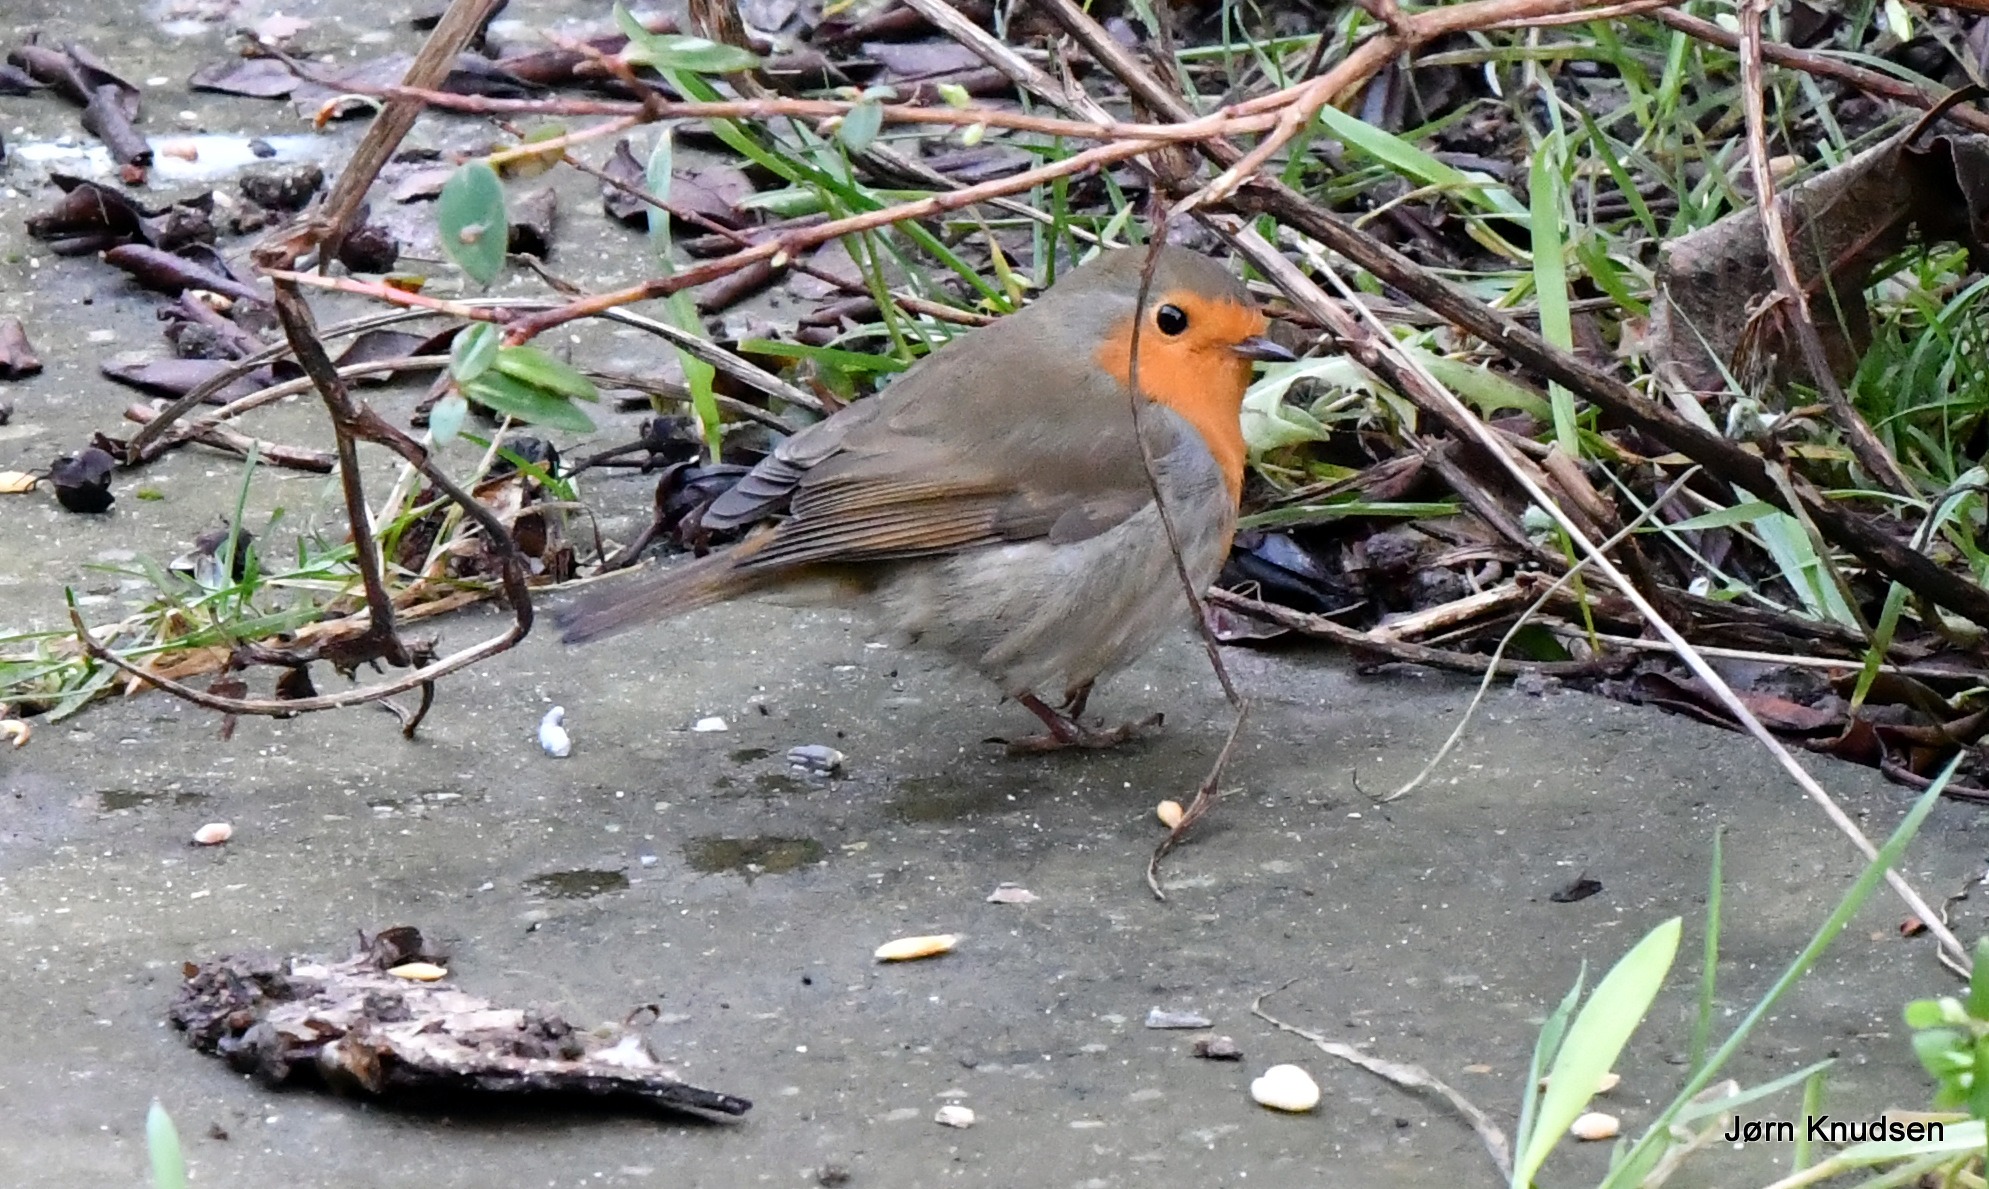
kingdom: Animalia
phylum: Chordata
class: Aves
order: Passeriformes
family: Muscicapidae
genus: Erithacus
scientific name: Erithacus rubecula
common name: Rødhals/rødkælk
